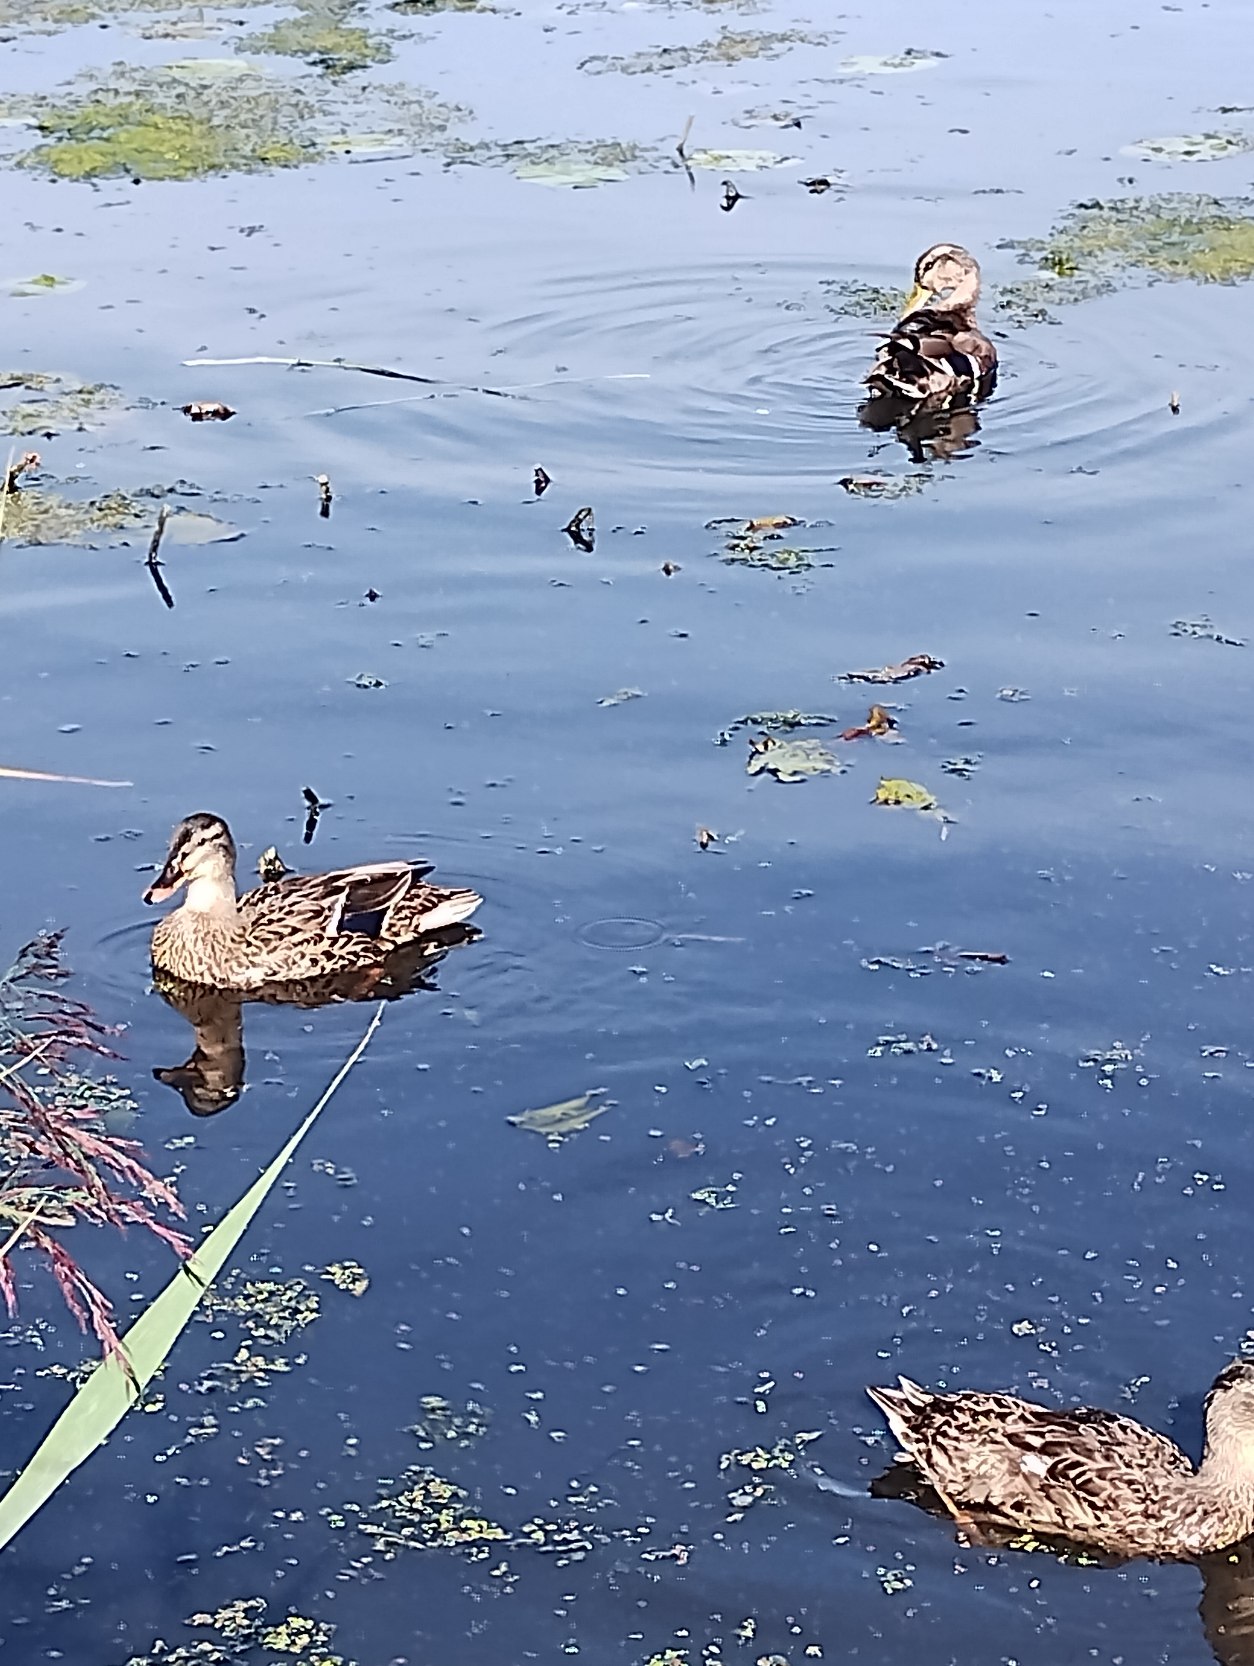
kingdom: Animalia
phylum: Chordata
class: Aves
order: Anseriformes
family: Anatidae
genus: Anas
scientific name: Anas platyrhynchos
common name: Gråand
